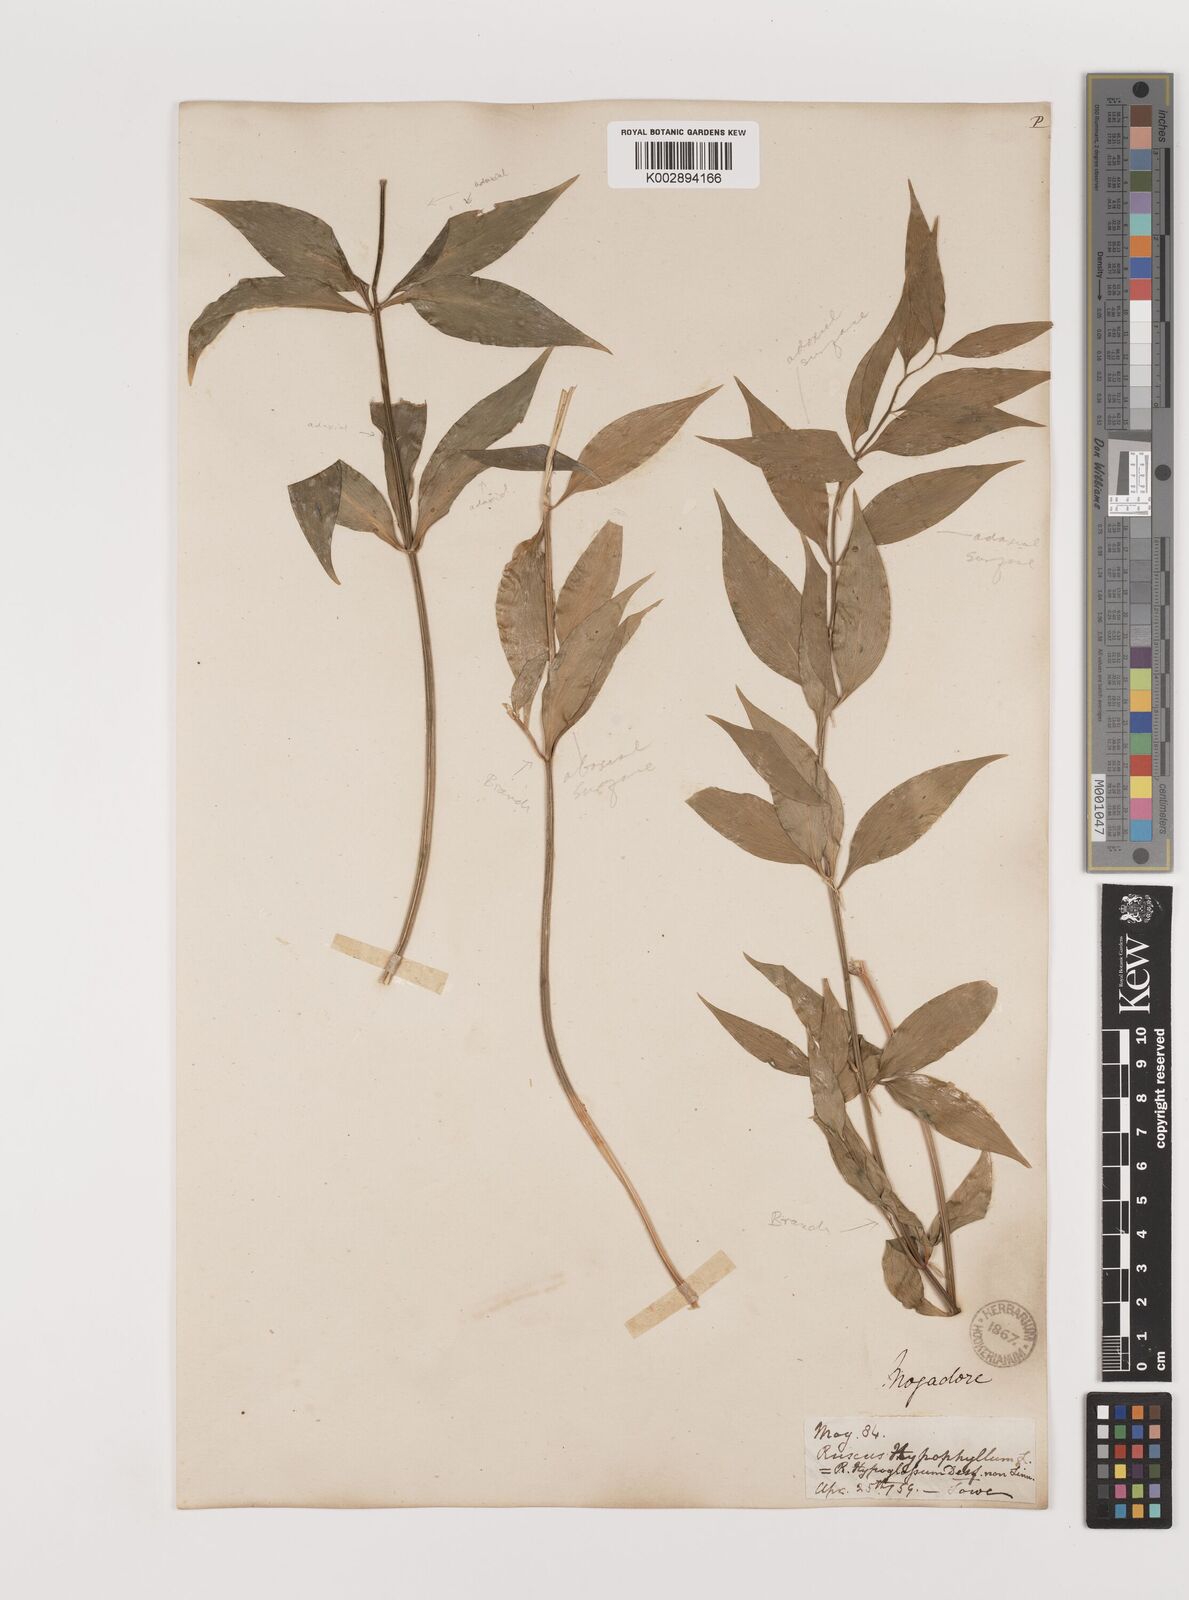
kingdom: Plantae
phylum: Tracheophyta
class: Liliopsida
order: Asparagales
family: Asparagaceae
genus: Ruscus
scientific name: Ruscus hypophyllum
